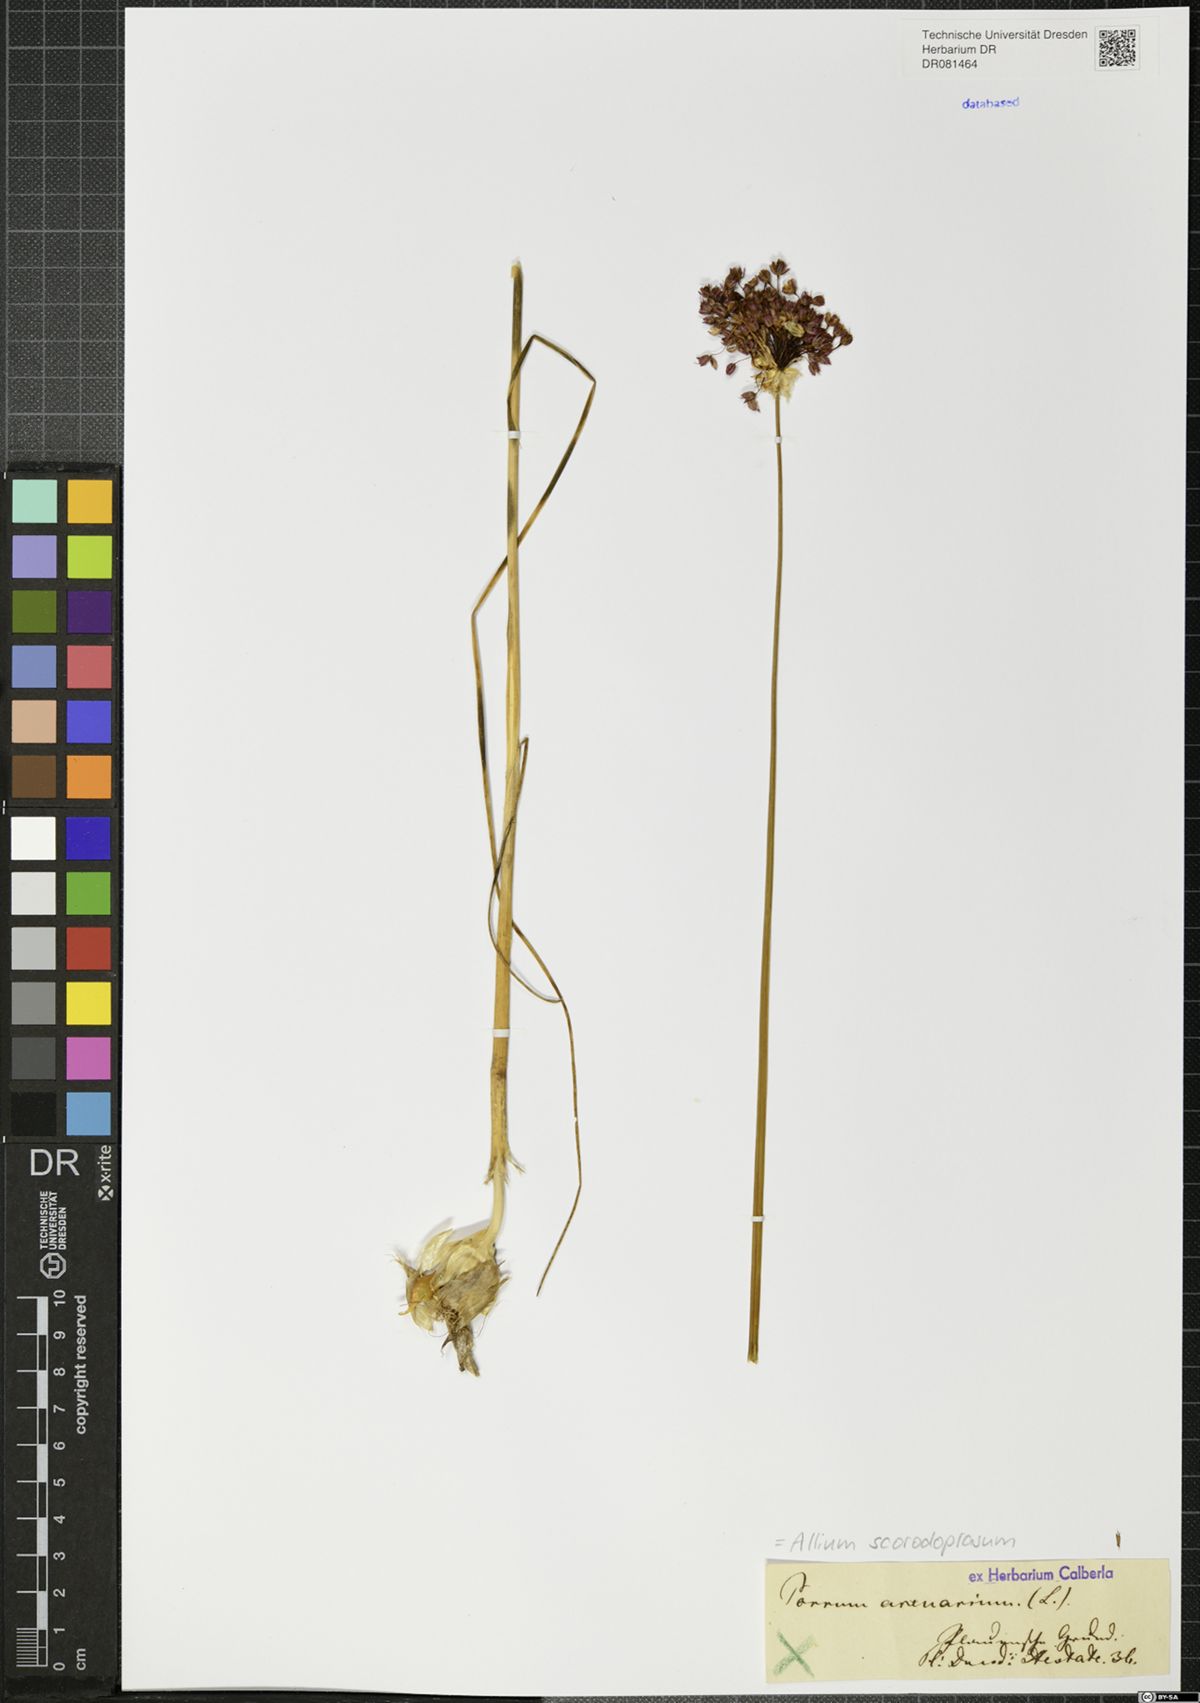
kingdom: Plantae
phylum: Tracheophyta
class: Liliopsida
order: Asparagales
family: Amaryllidaceae
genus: Allium
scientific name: Allium scorodoprasum
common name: Sand leek
